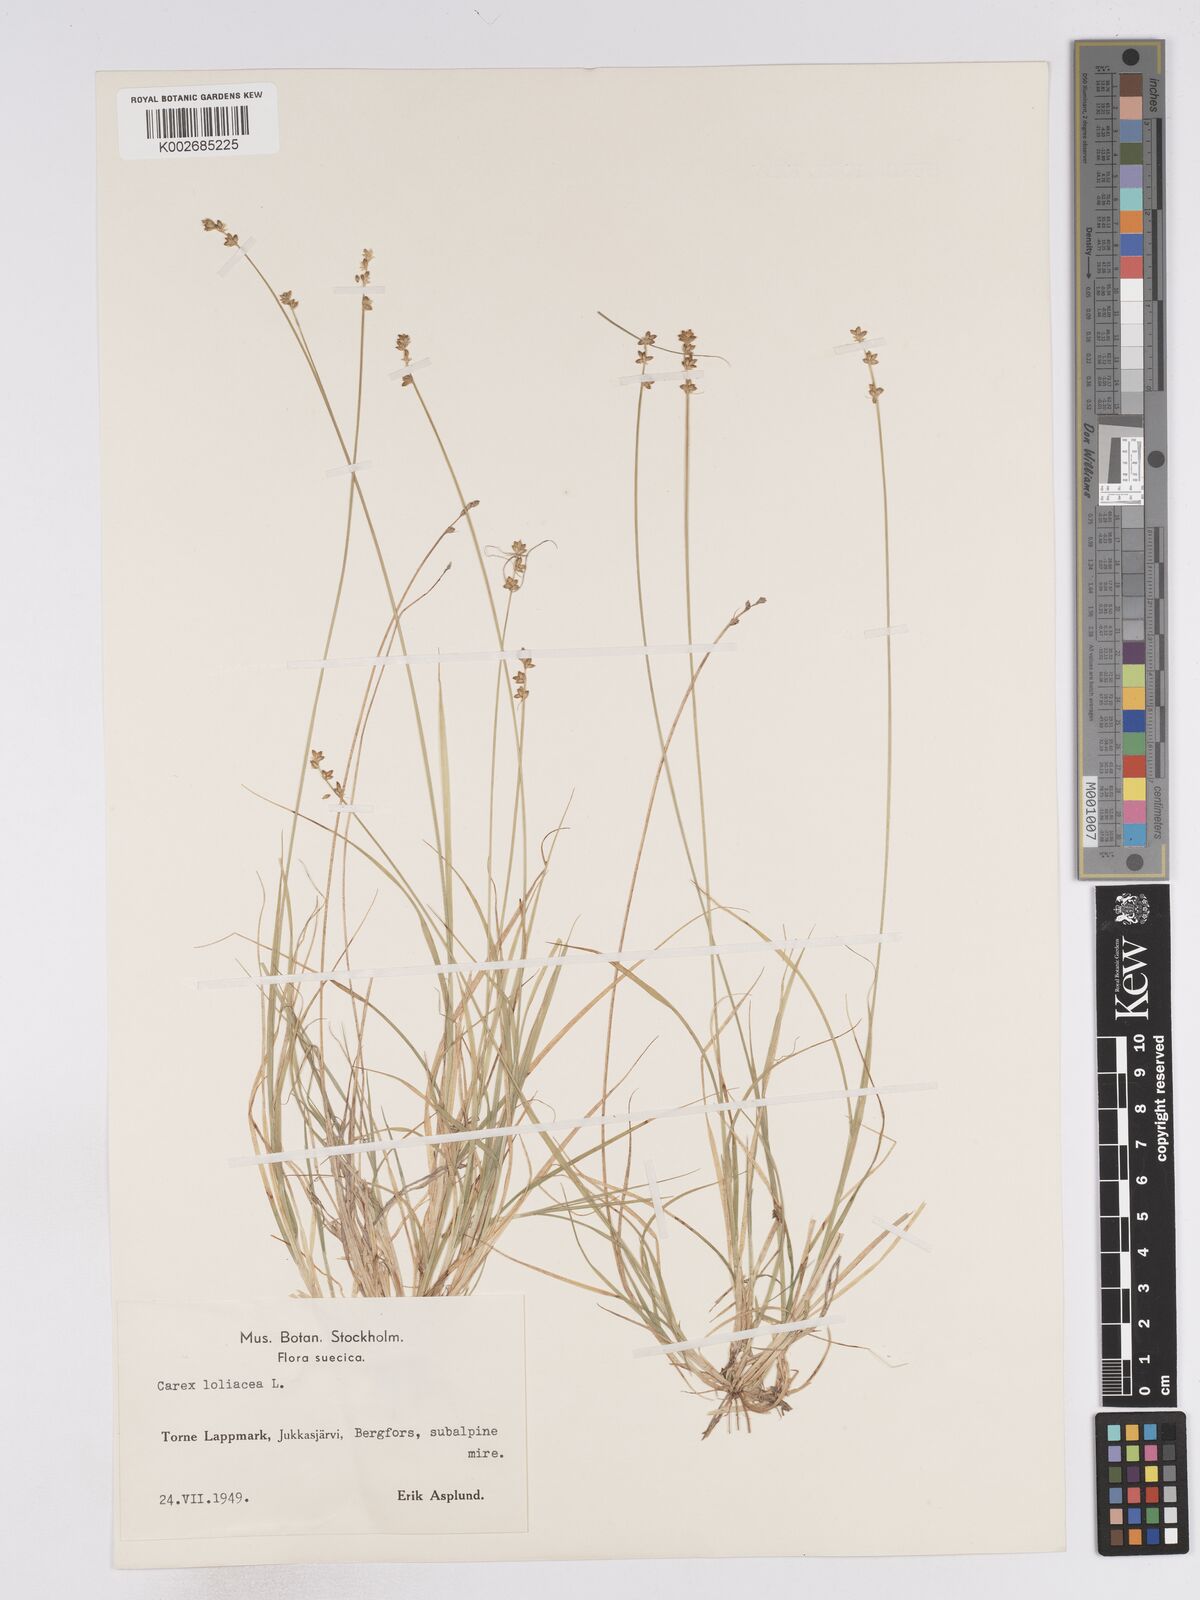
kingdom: Plantae
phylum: Tracheophyta
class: Liliopsida
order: Poales
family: Cyperaceae
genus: Carex
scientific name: Carex loliacea
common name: Ryegrass sedge
